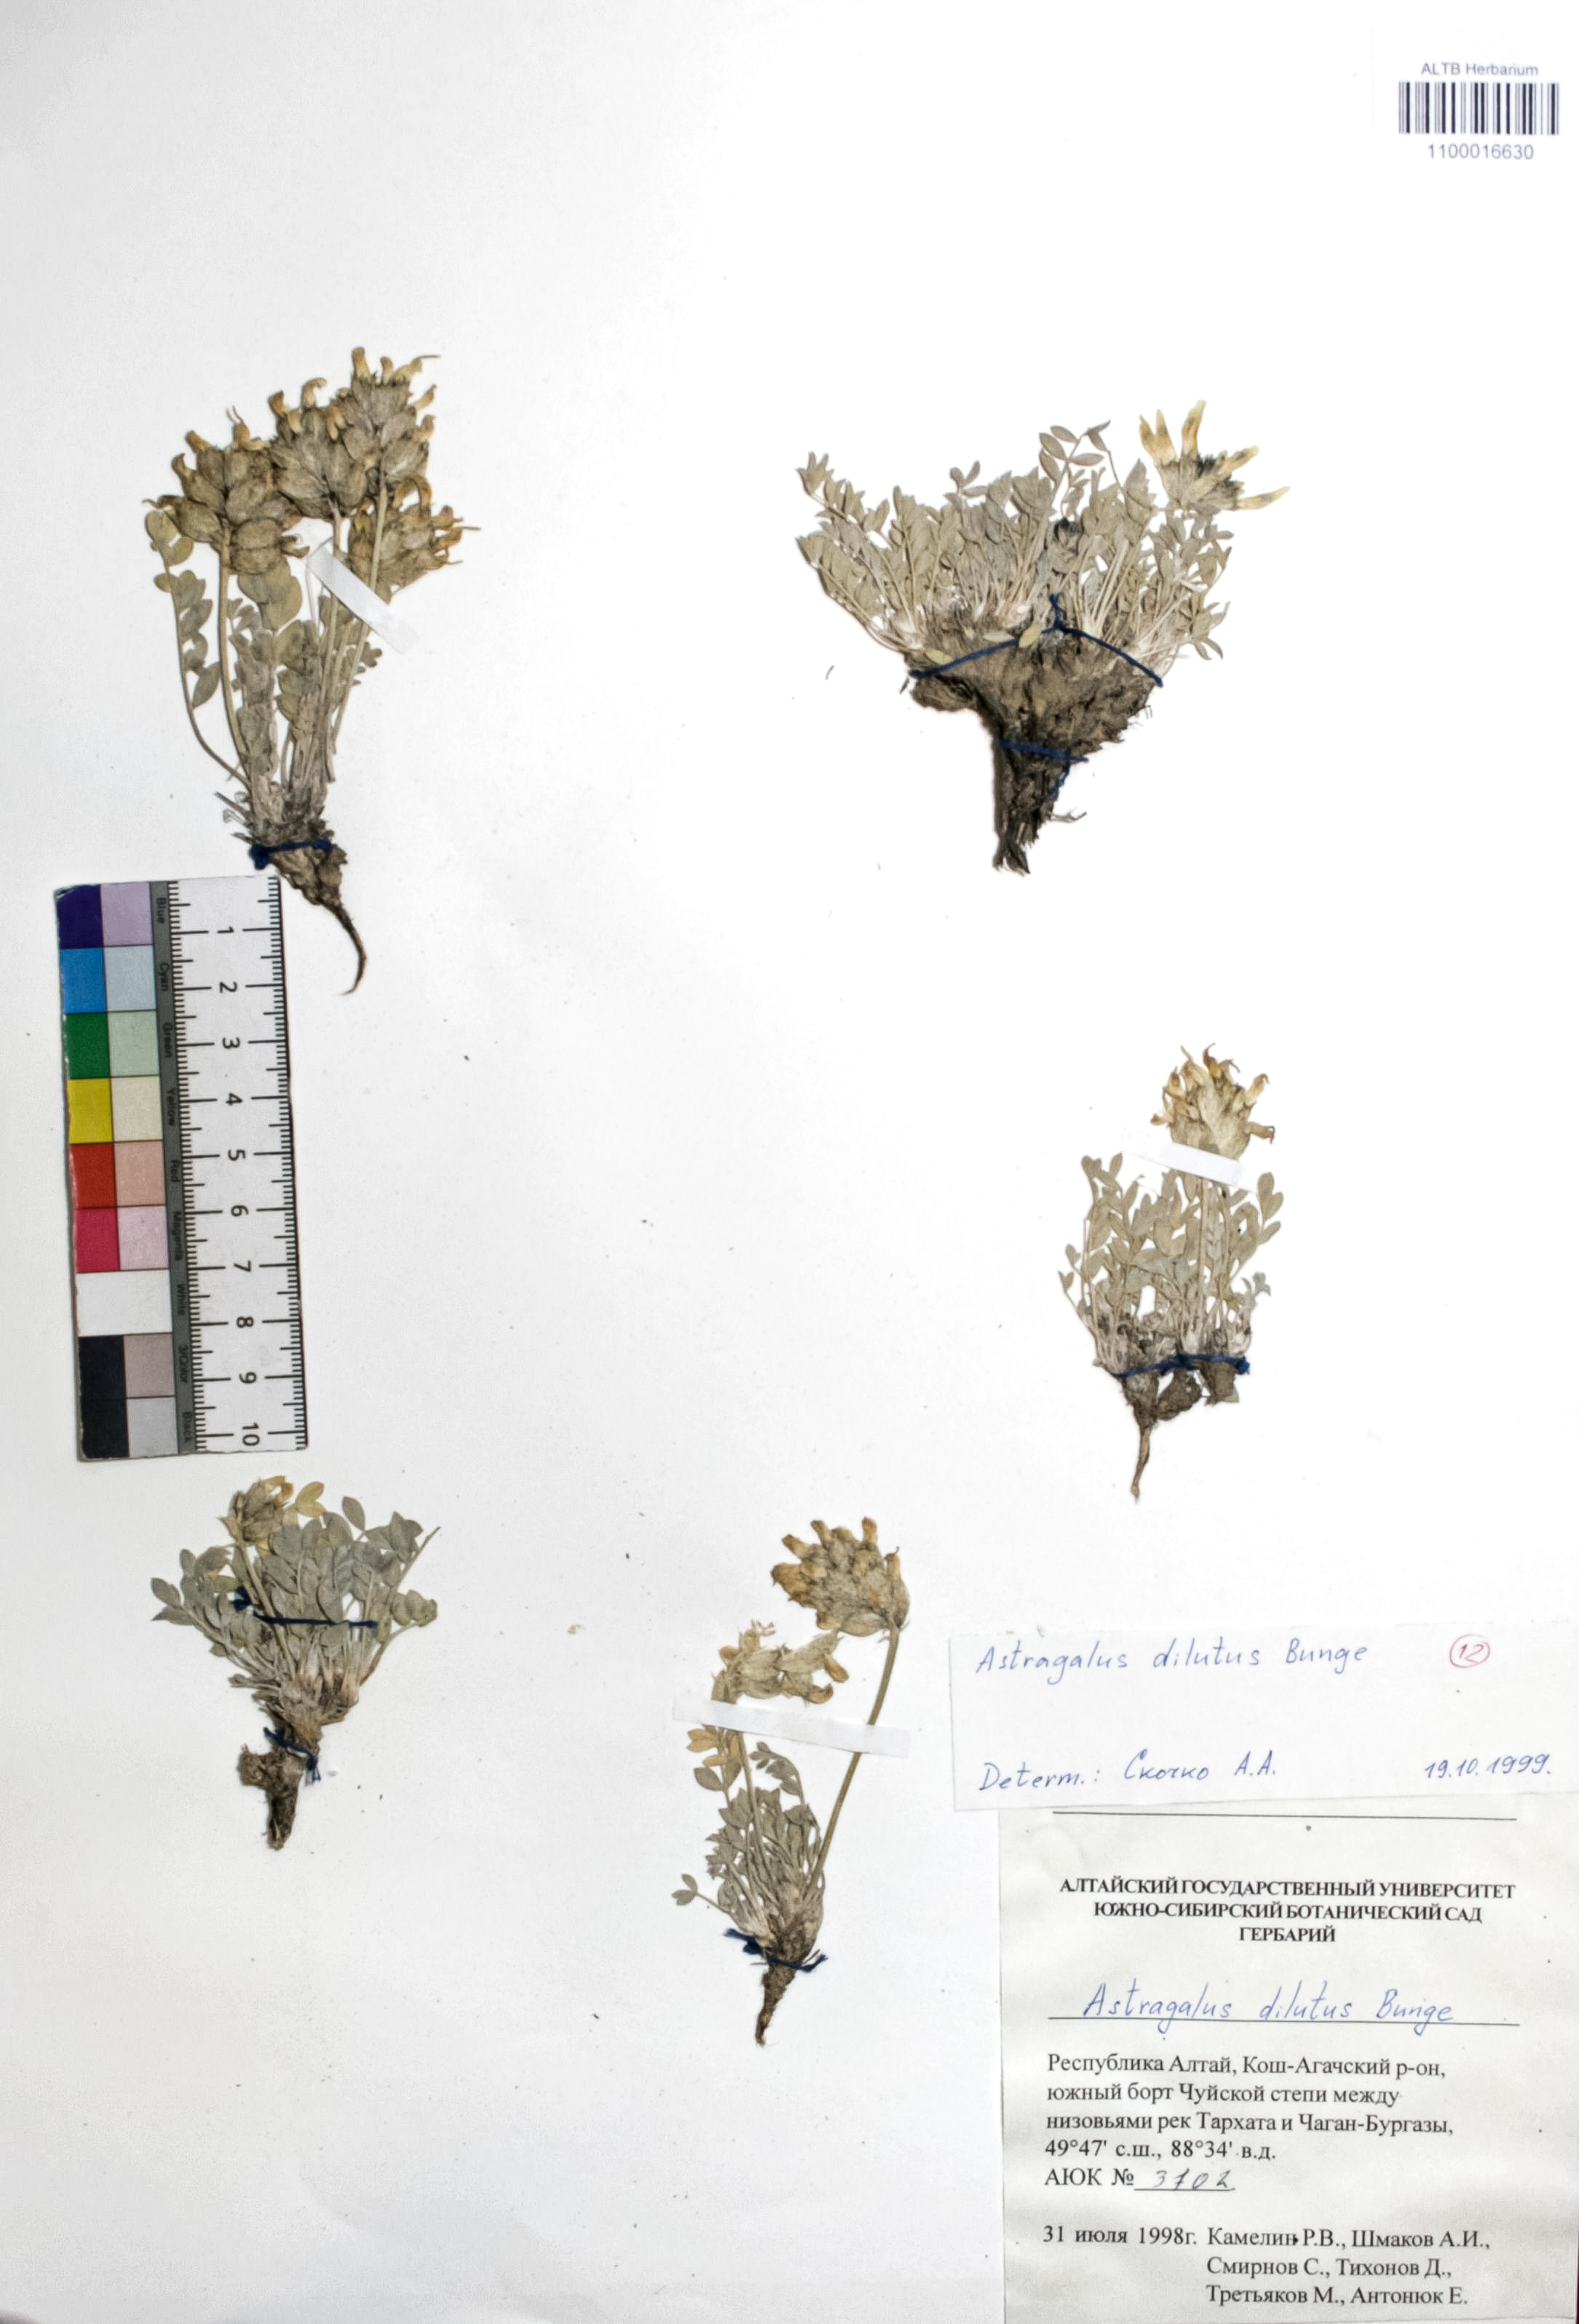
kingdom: Plantae
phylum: Tracheophyta
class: Magnoliopsida
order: Fabales
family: Fabaceae
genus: Astragalus
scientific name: Astragalus dilutus
